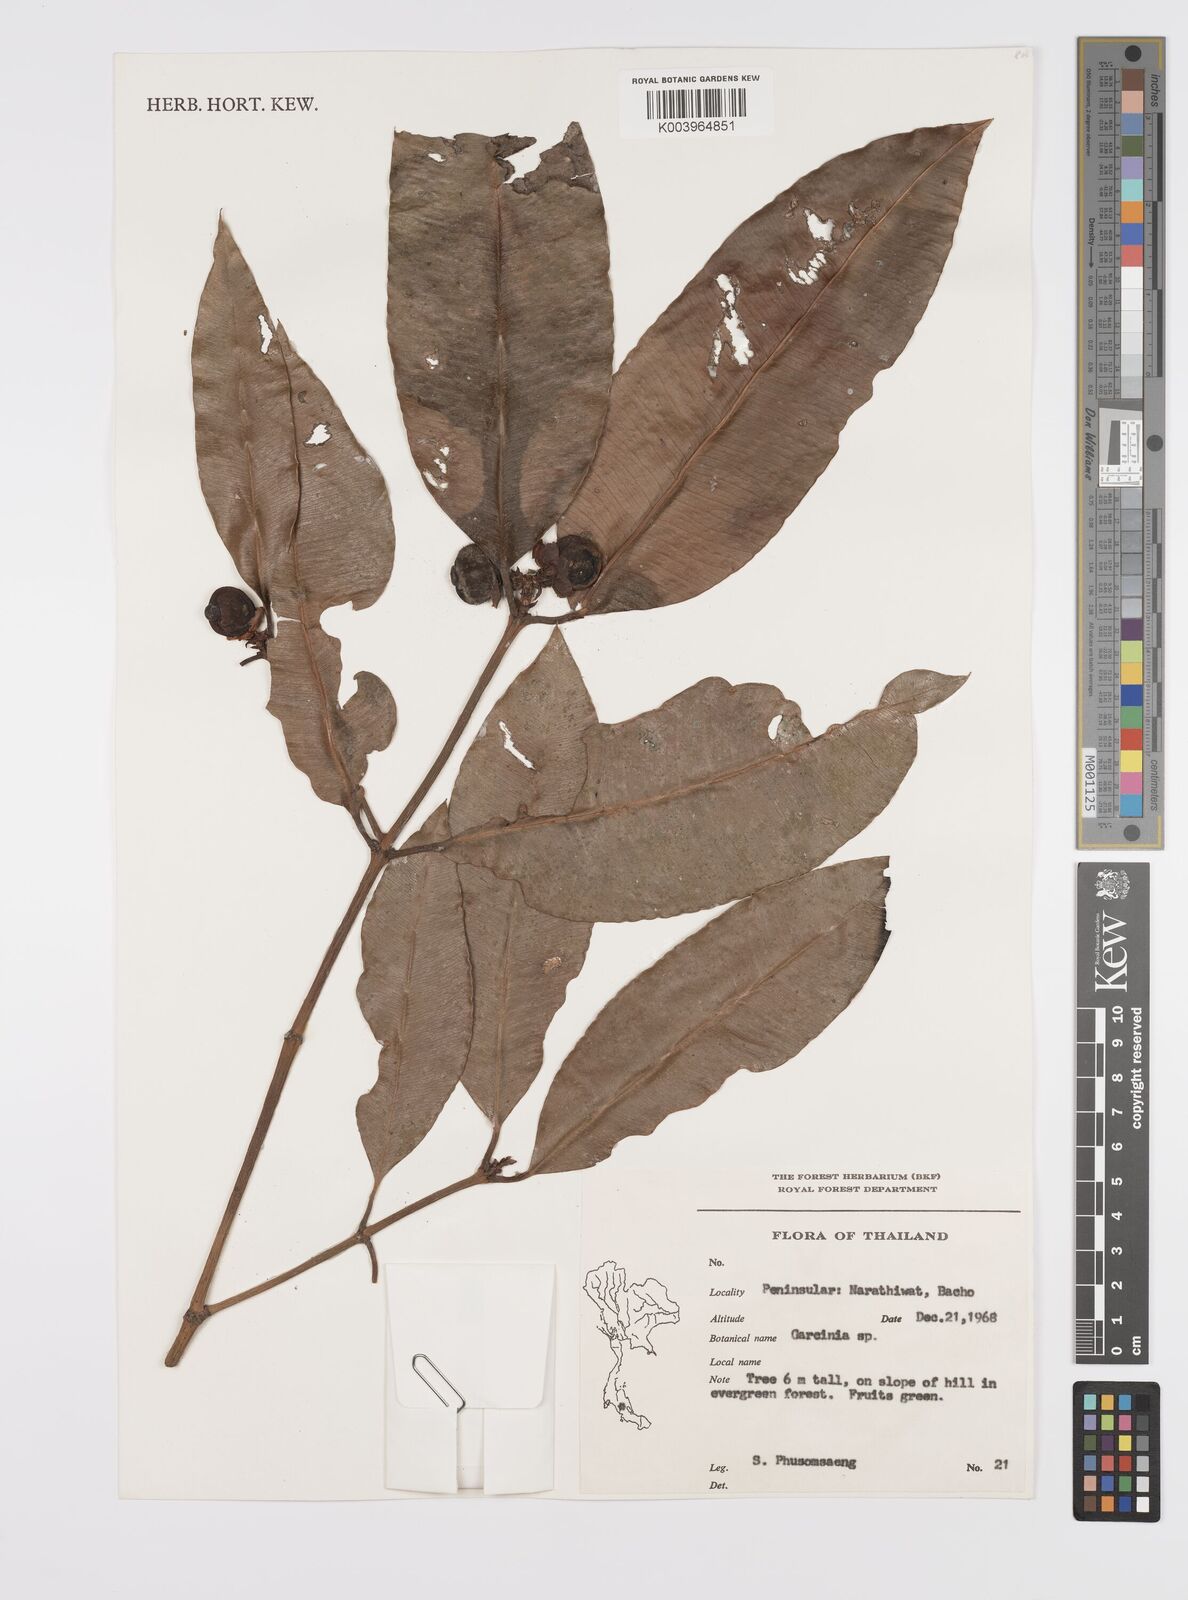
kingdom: Plantae
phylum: Tracheophyta
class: Magnoliopsida
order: Malpighiales
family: Clusiaceae
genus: Garcinia
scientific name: Garcinia
